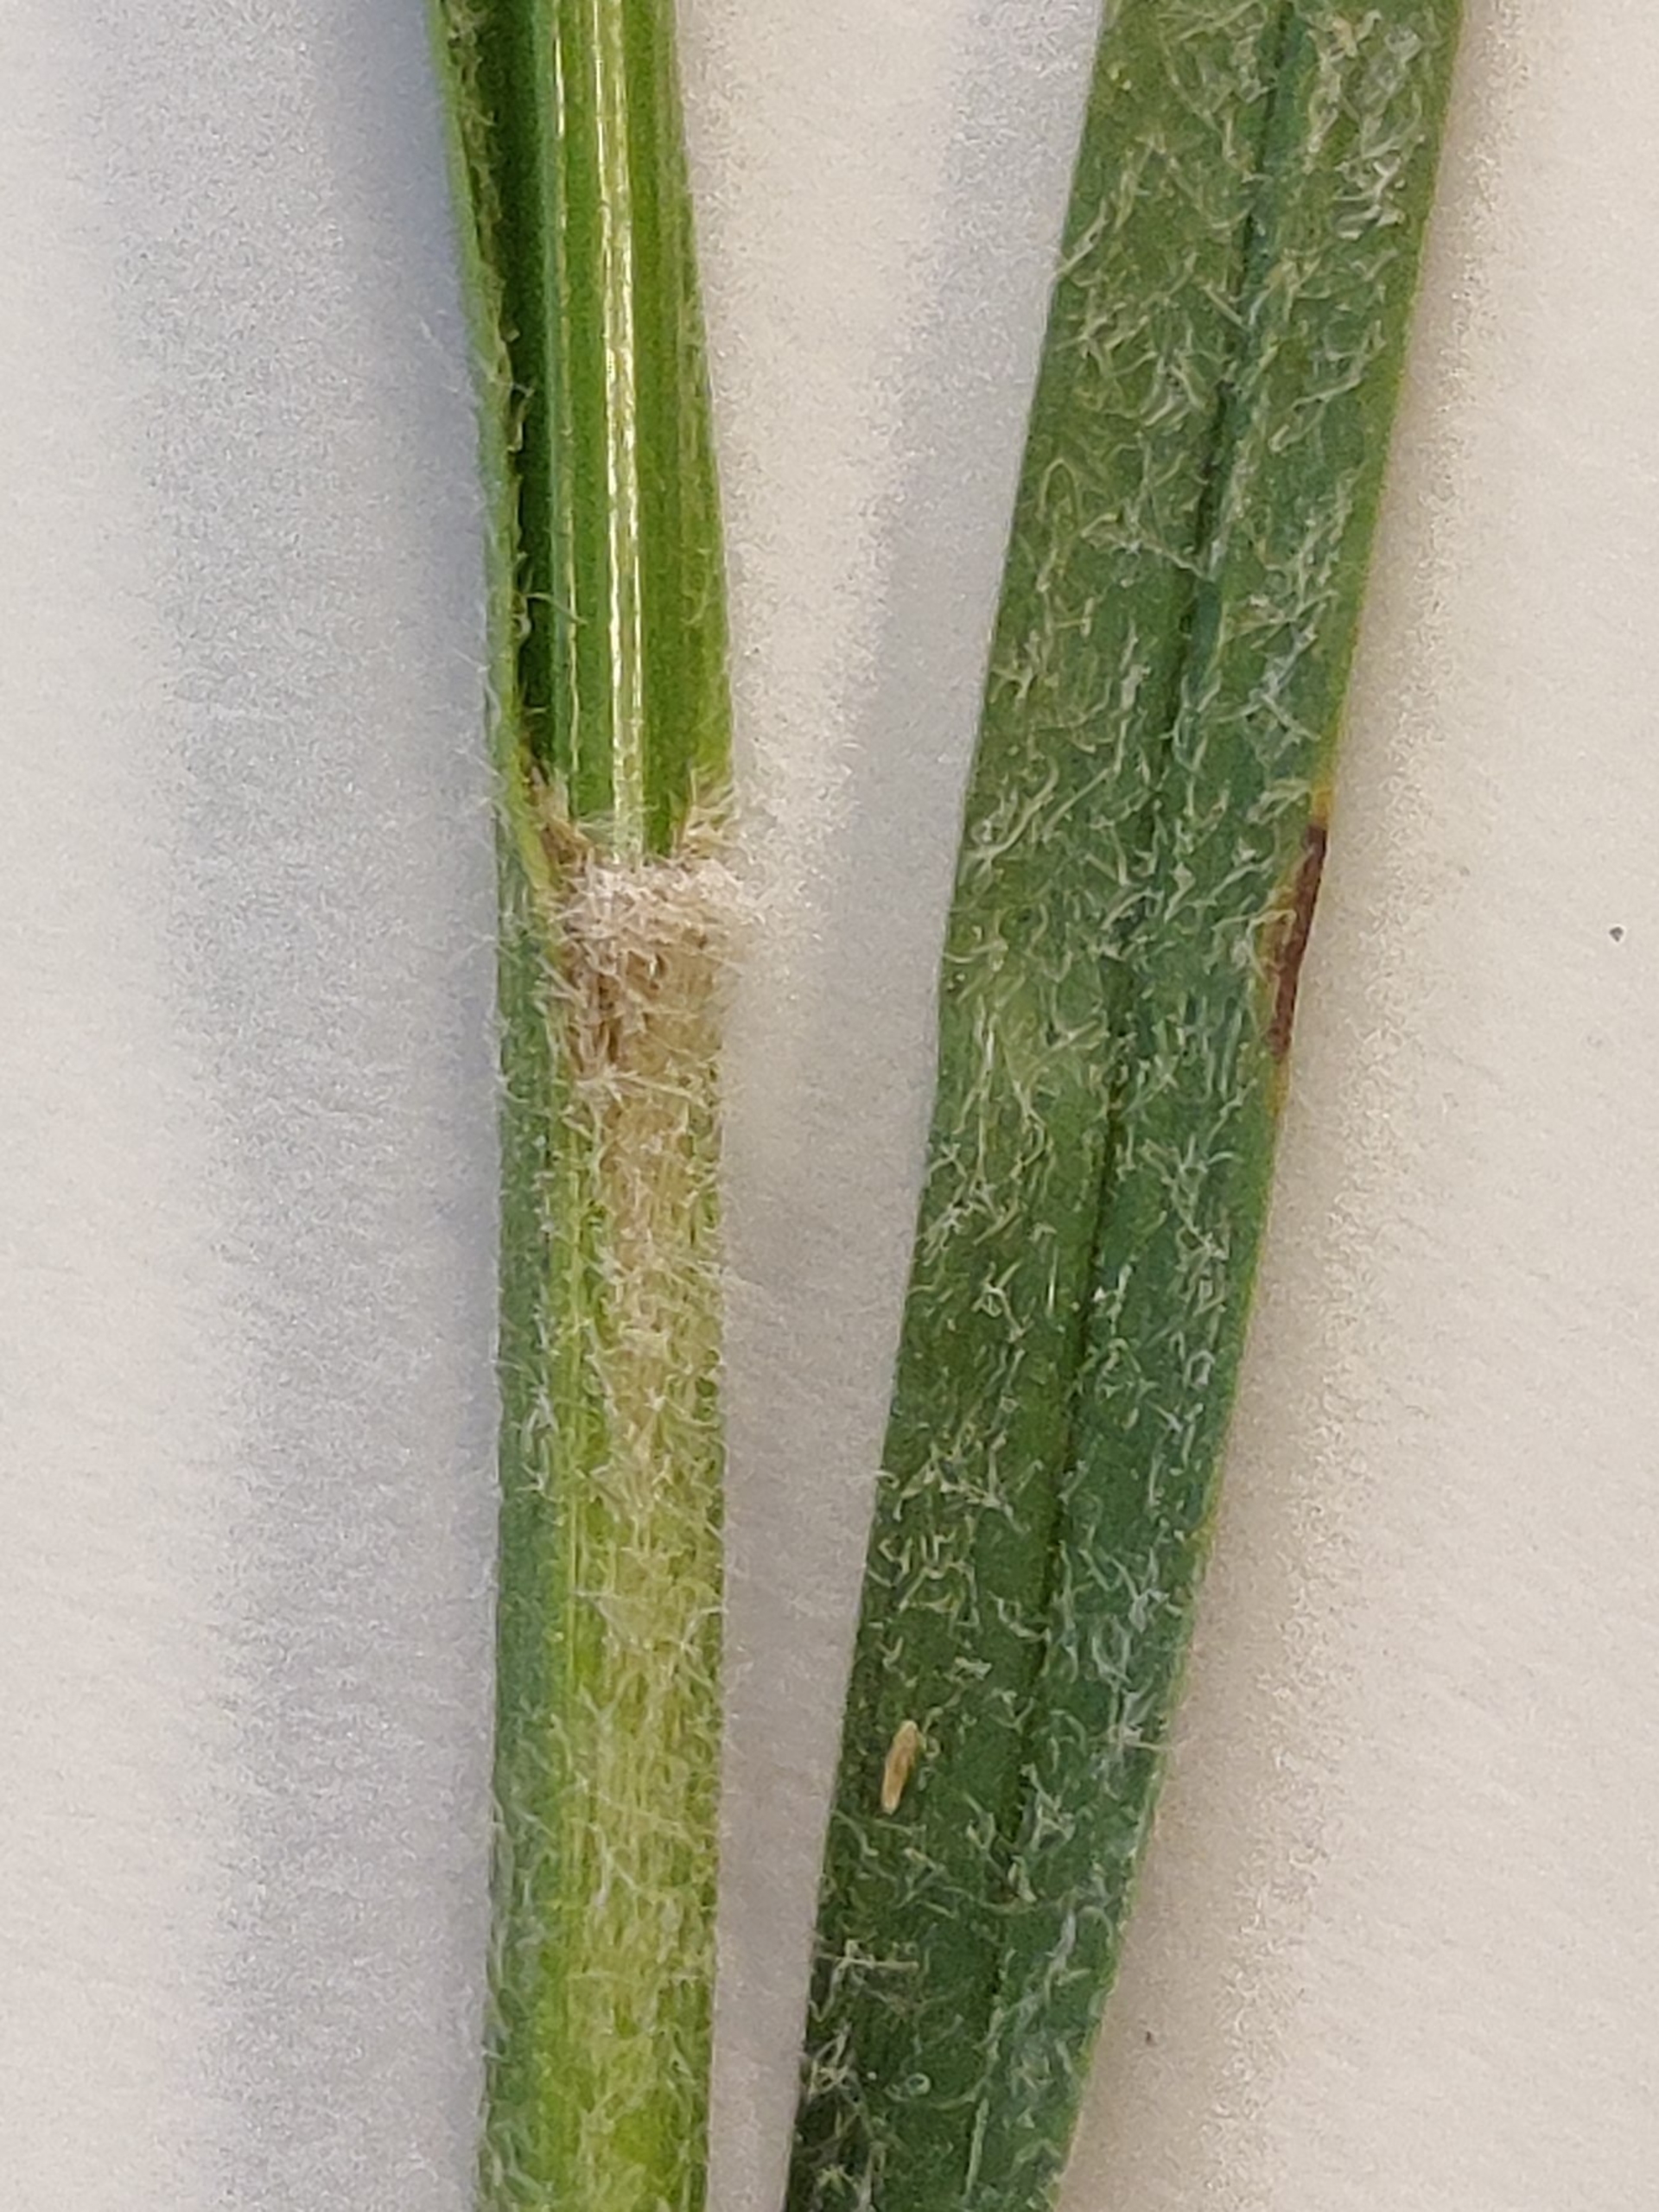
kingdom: Plantae
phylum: Tracheophyta
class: Liliopsida
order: Poales
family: Cyperaceae
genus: Carex
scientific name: Carex hirta
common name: Håret star
